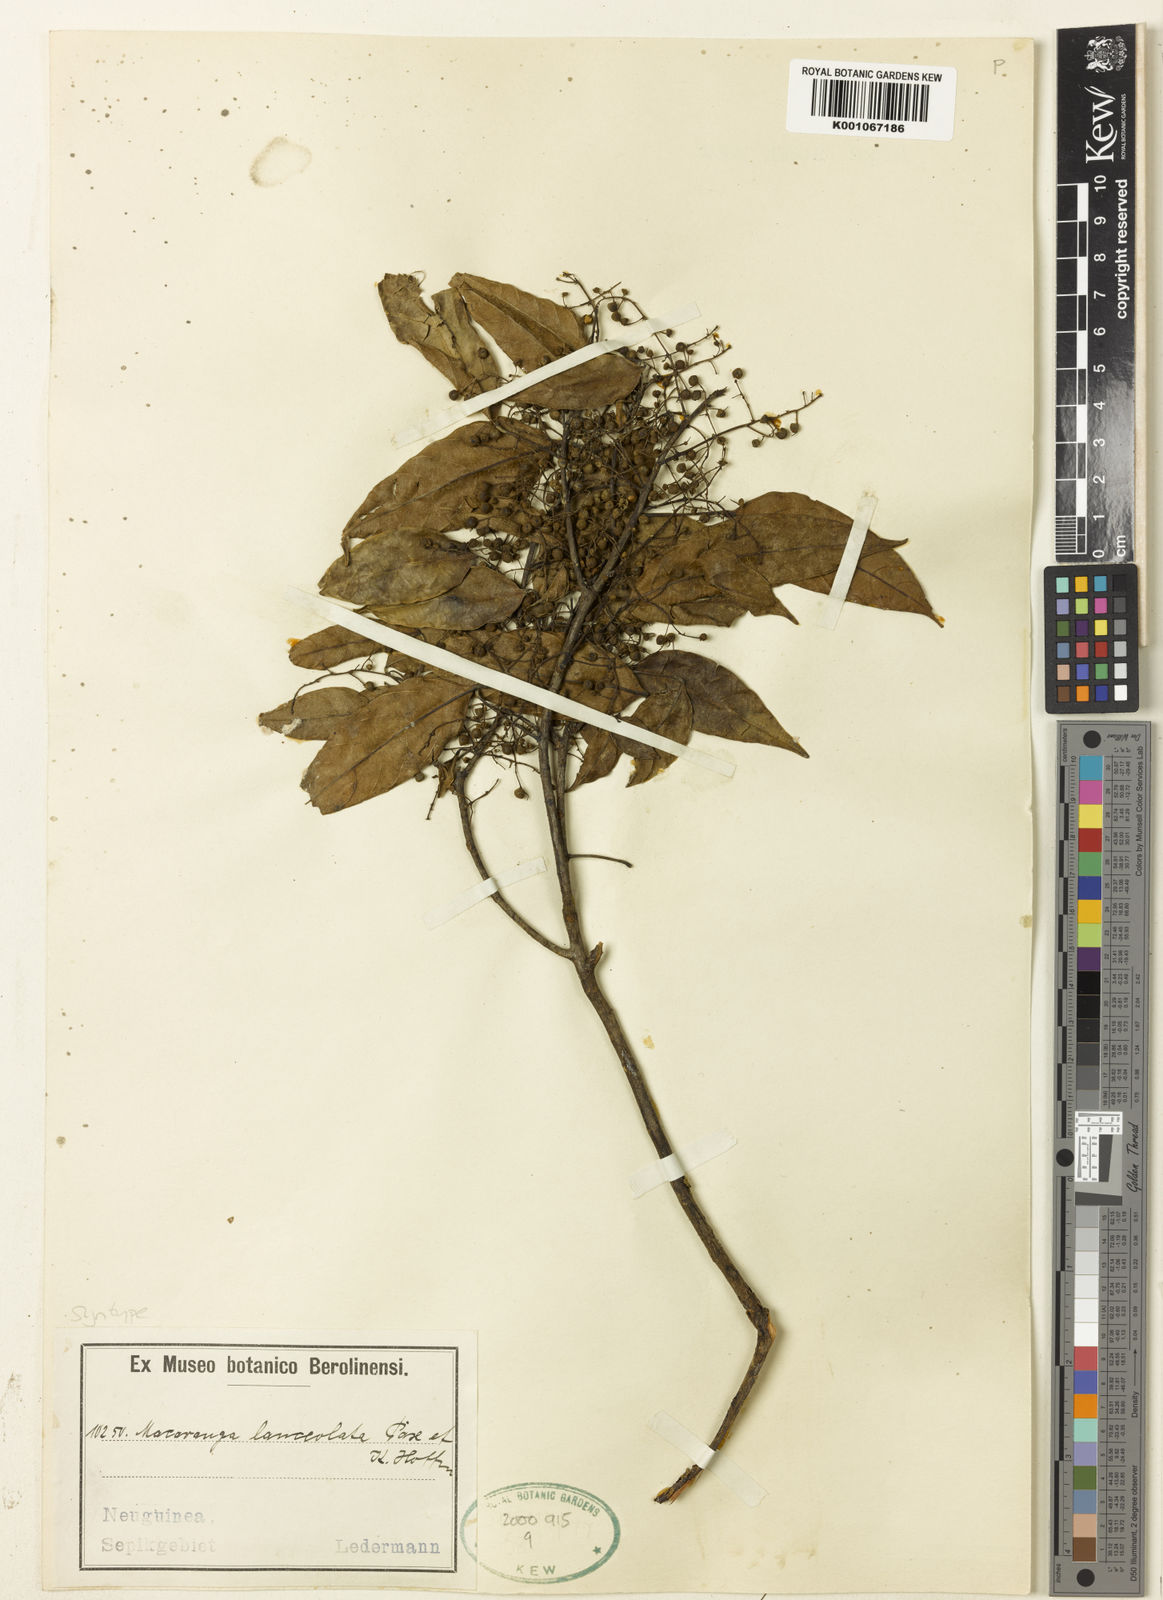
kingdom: Plantae
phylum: Tracheophyta
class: Magnoliopsida
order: Malpighiales
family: Euphorbiaceae
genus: Macaranga
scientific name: Macaranga lanceolata
